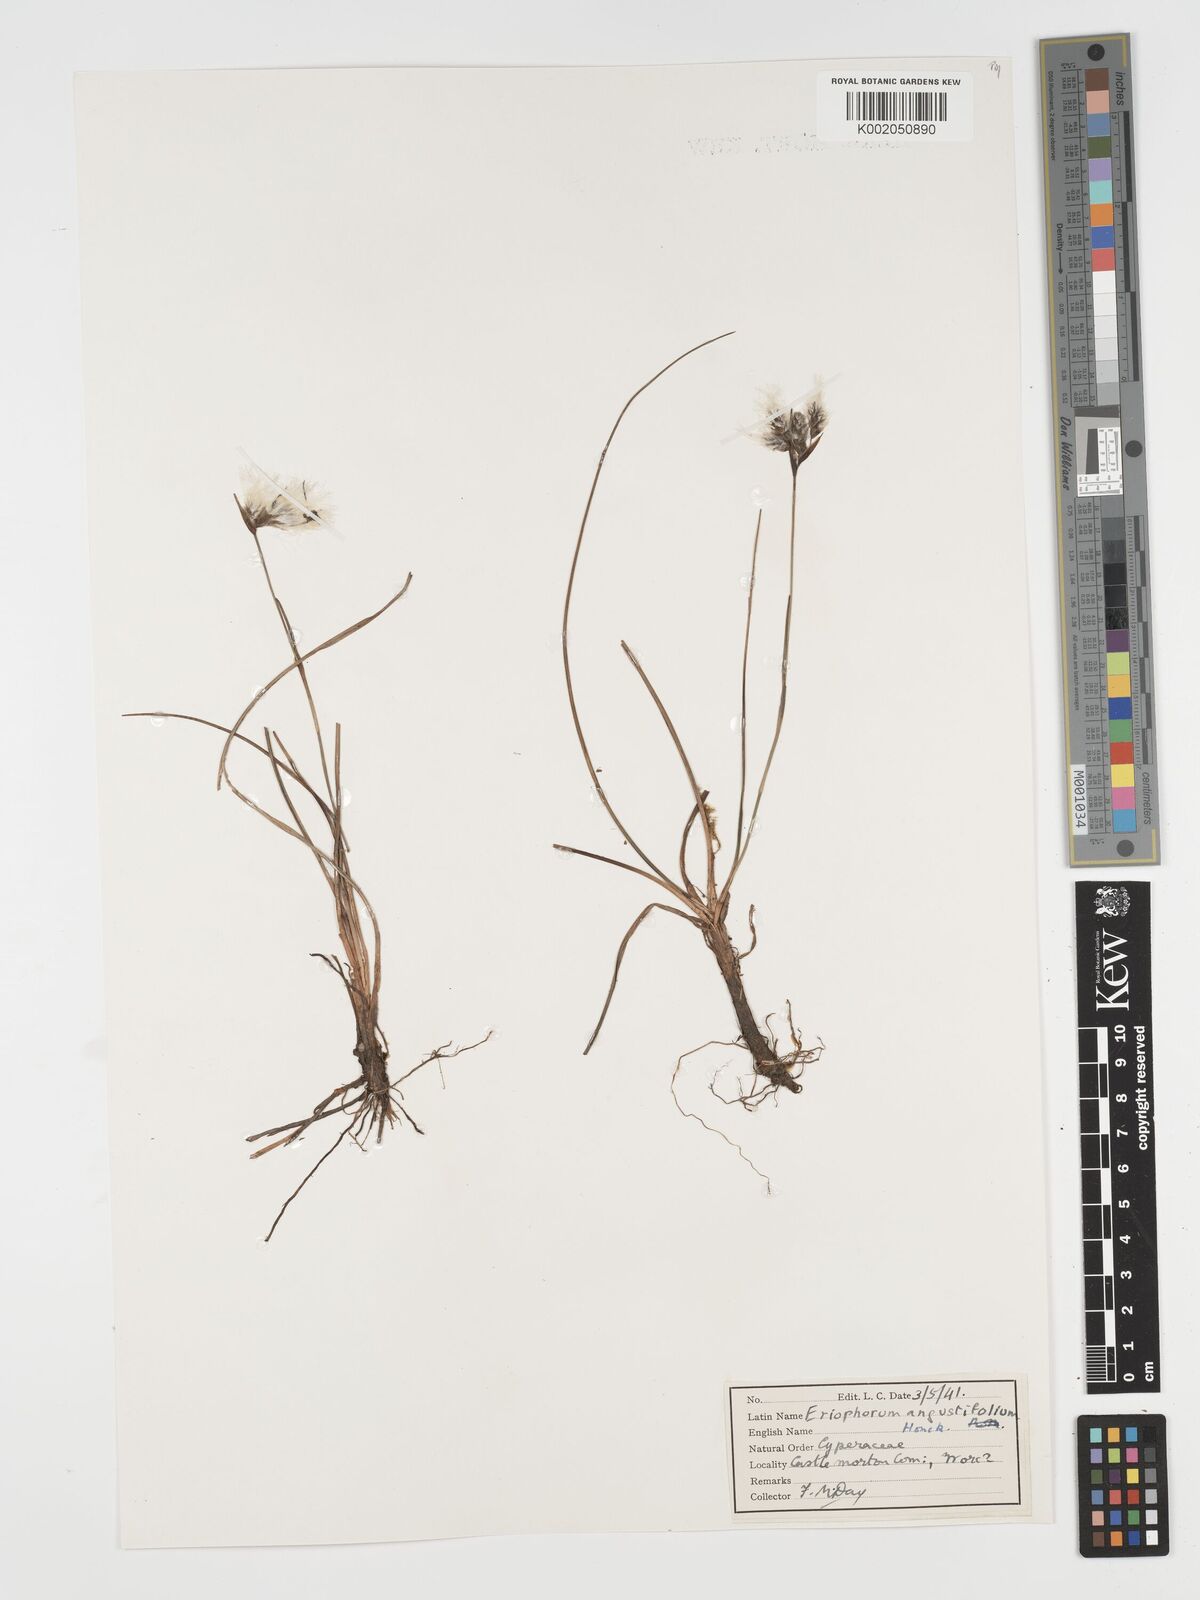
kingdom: Plantae
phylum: Tracheophyta
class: Liliopsida
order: Poales
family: Cyperaceae
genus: Eriophorum
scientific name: Eriophorum angustifolium
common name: Common cottongrass
